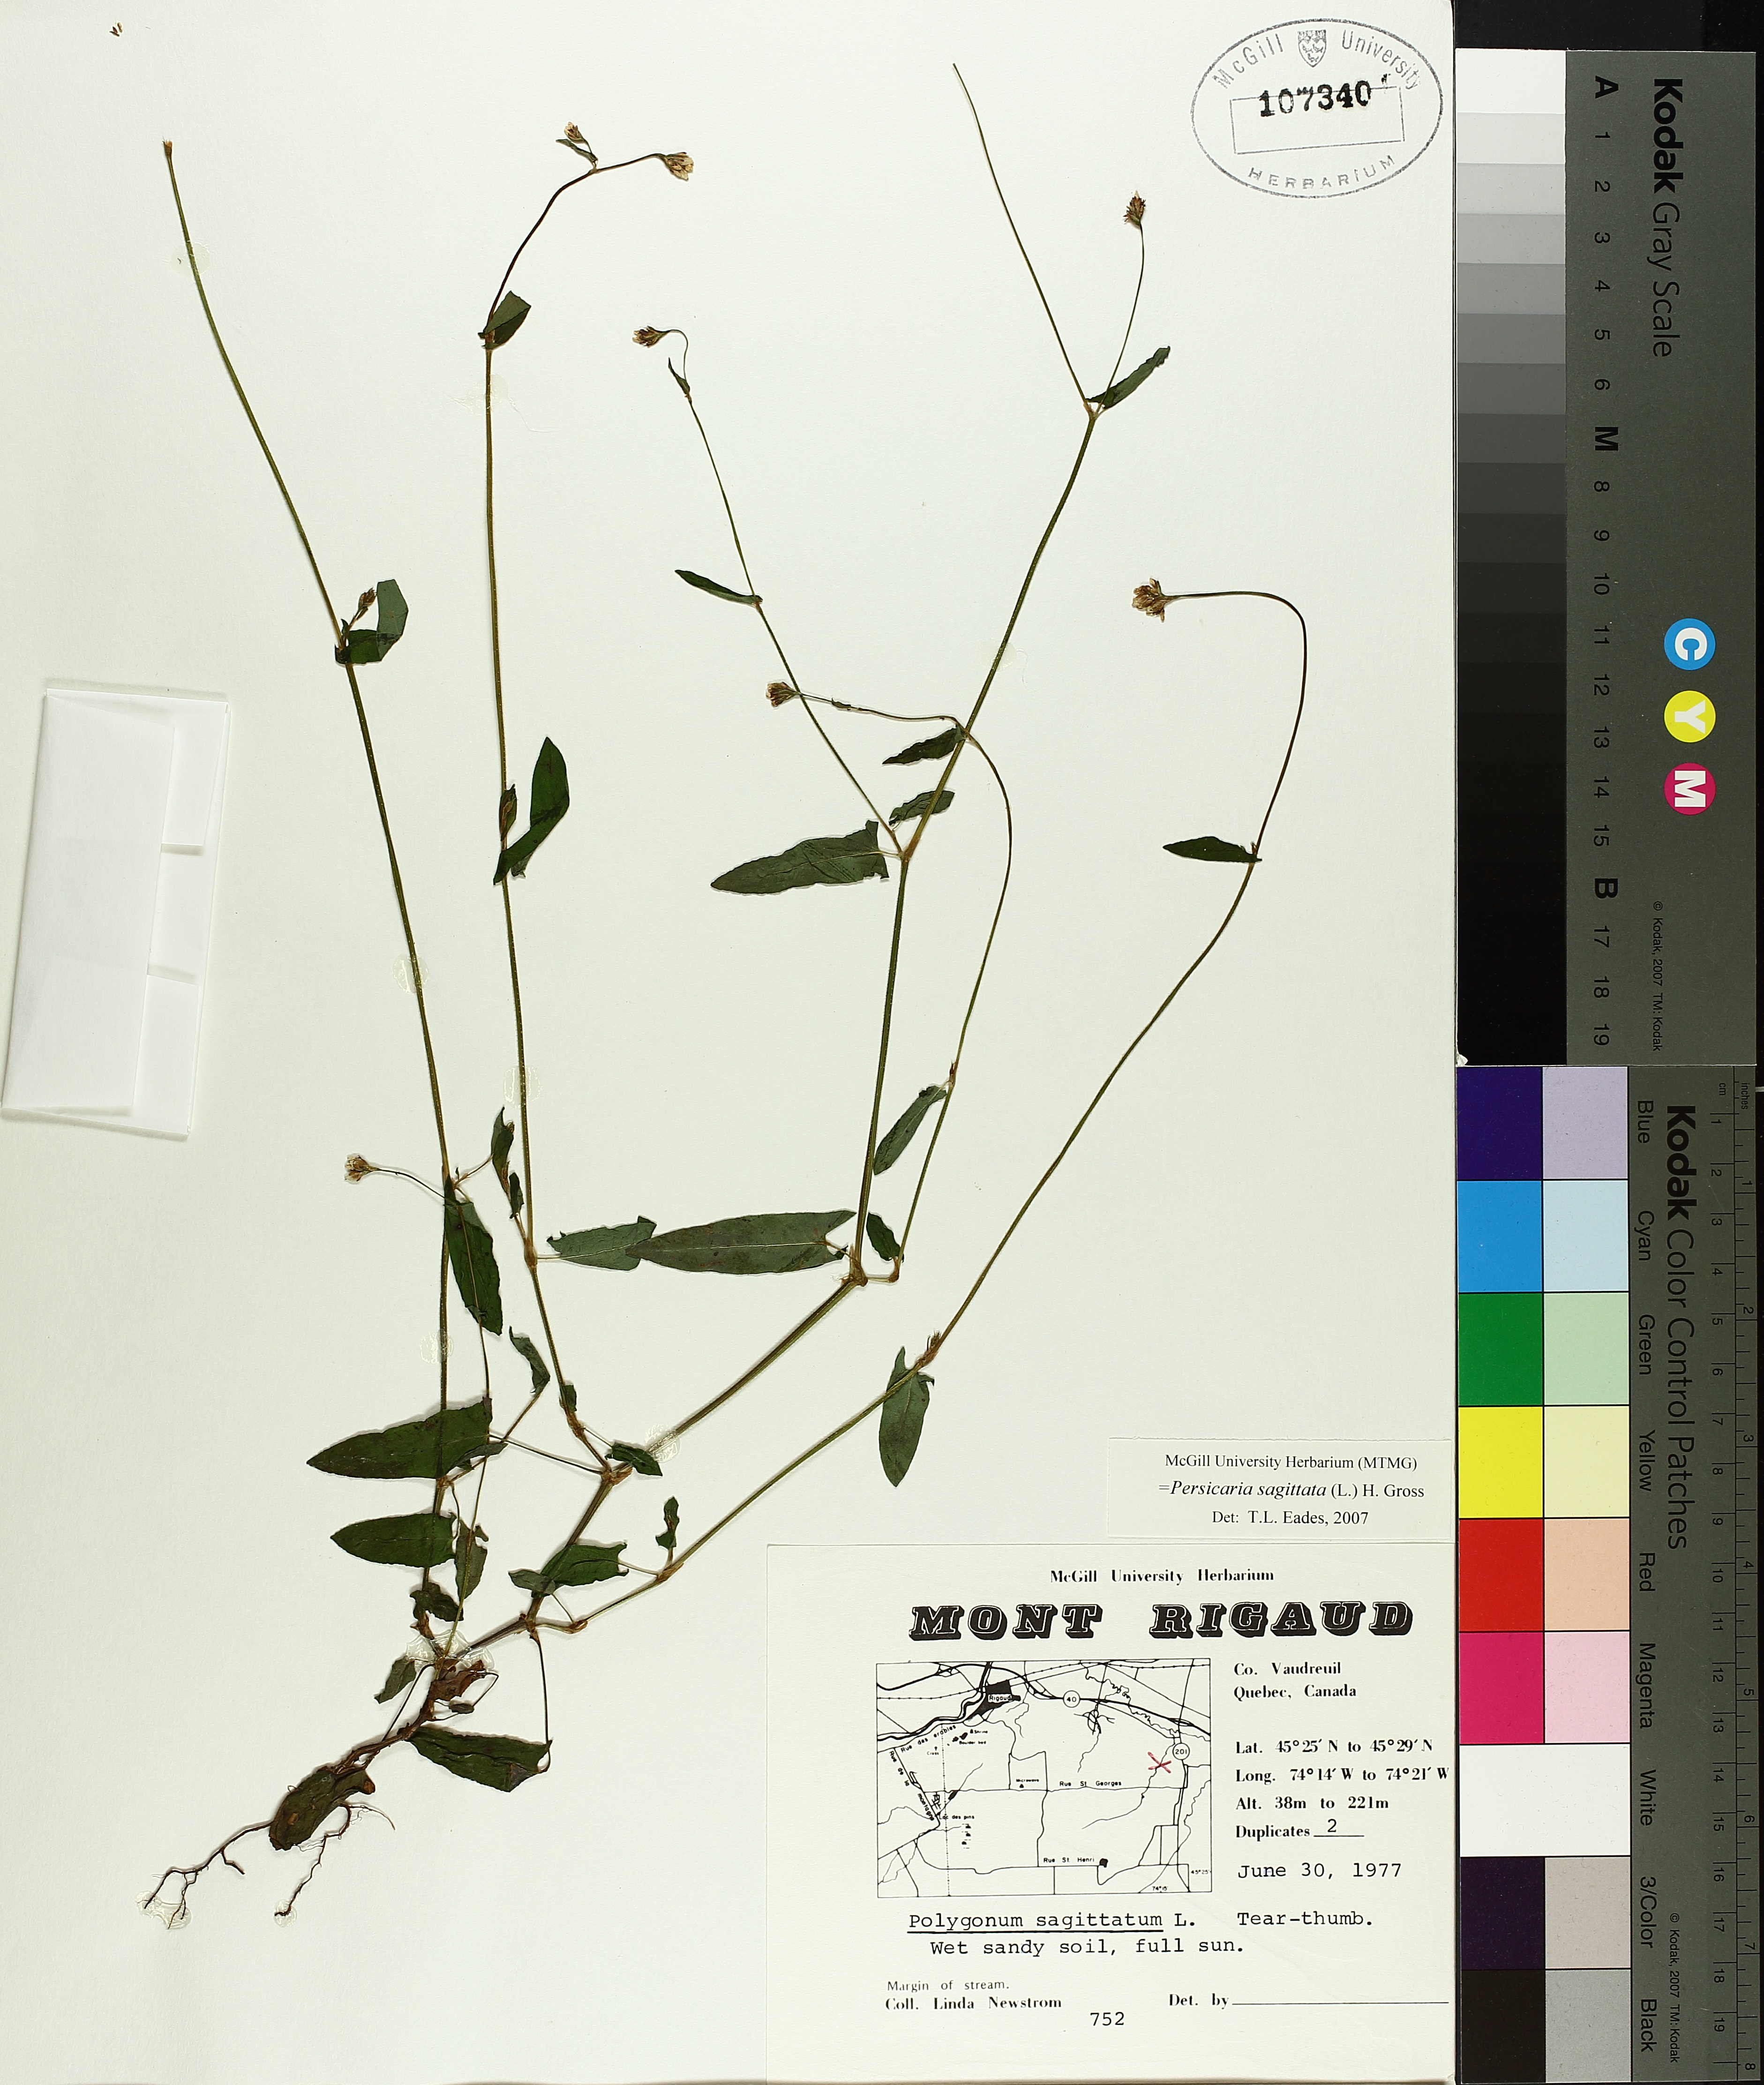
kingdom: Plantae
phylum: Tracheophyta
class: Magnoliopsida
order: Caryophyllales
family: Polygonaceae
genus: Persicaria
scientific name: Persicaria sagittata
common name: American tearthumb
